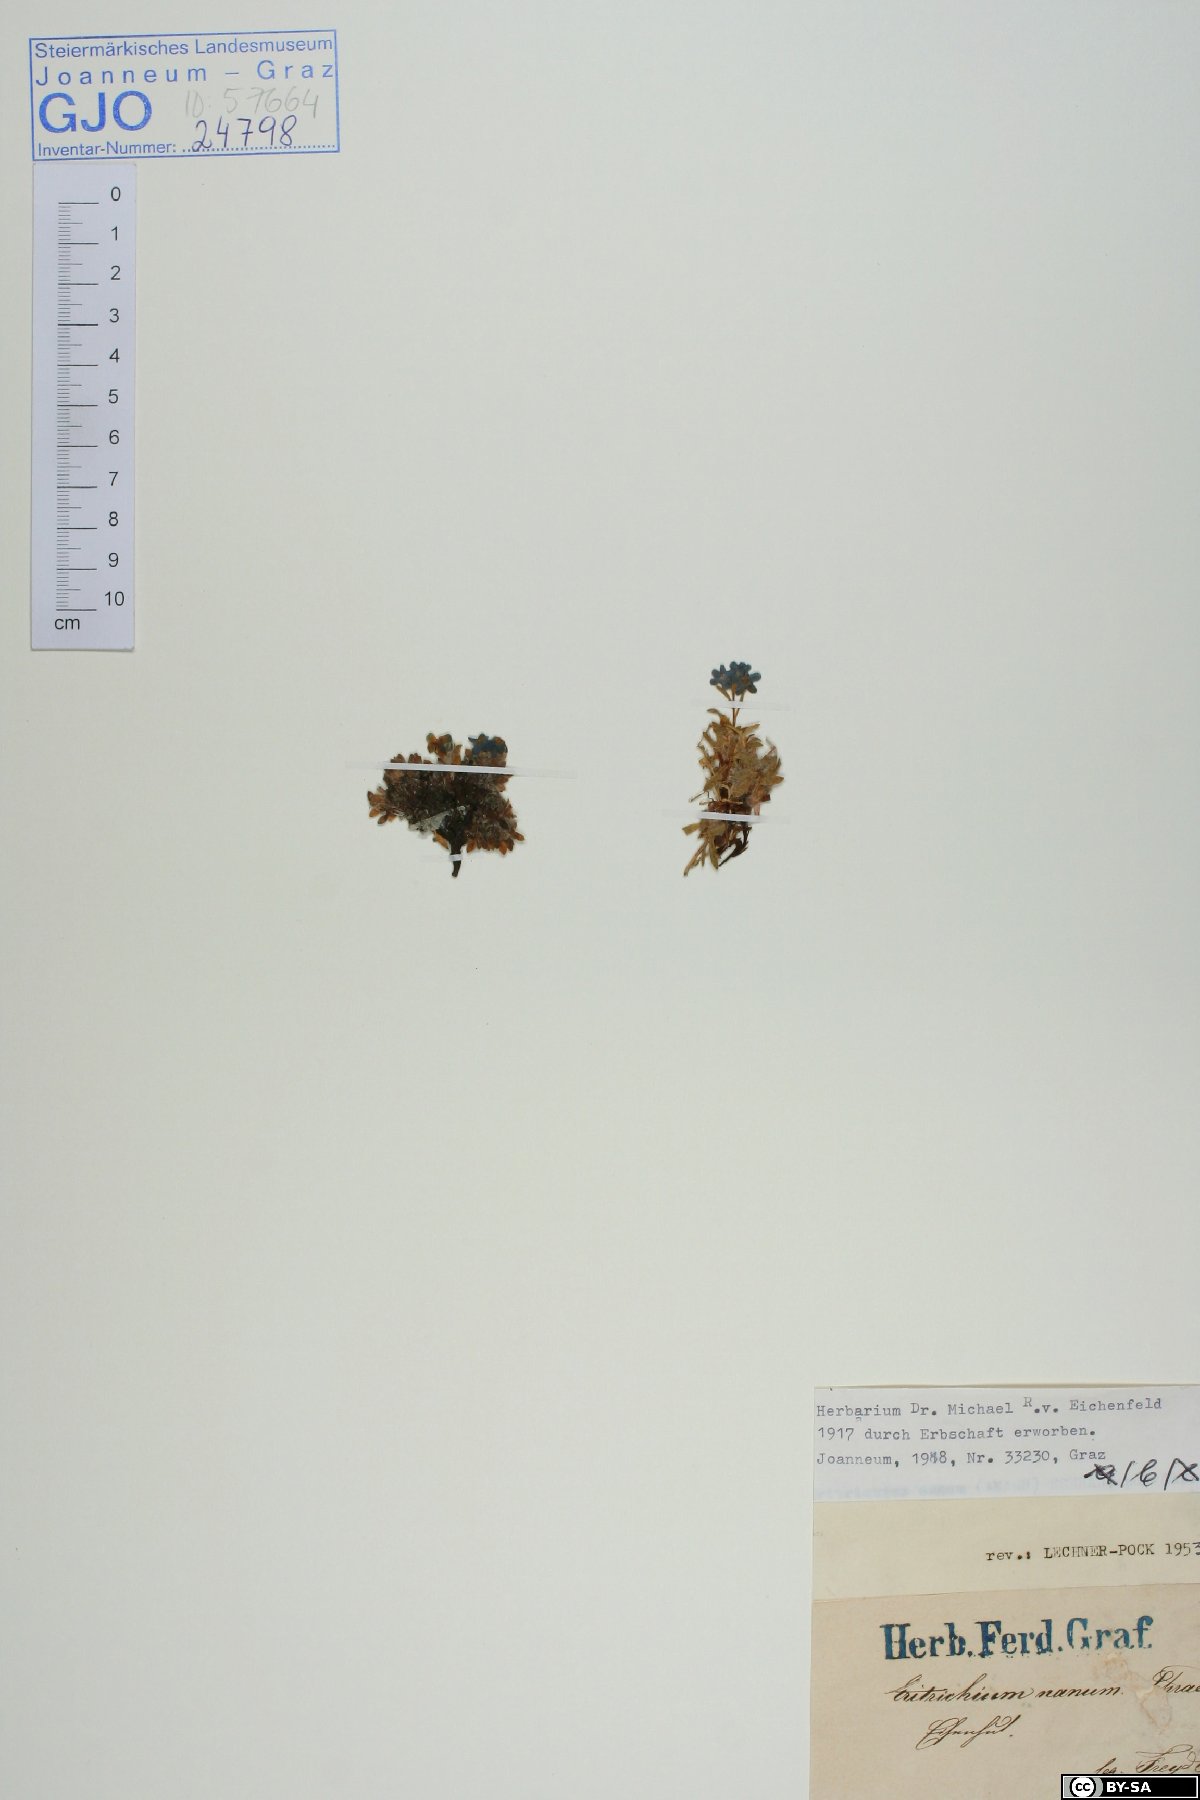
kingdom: Plantae
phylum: Tracheophyta
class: Magnoliopsida
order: Boraginales
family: Boraginaceae
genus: Eritrichium
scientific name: Eritrichium nanum
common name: King-of-the-alps
